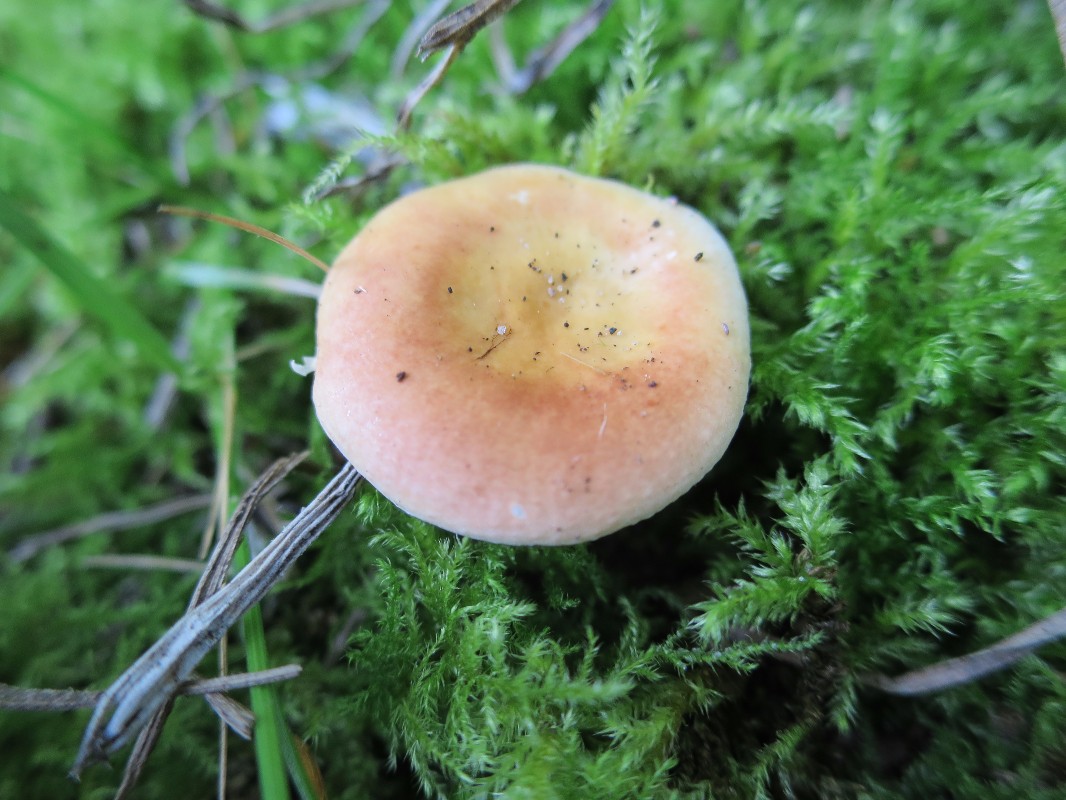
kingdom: Fungi
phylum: Basidiomycota
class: Agaricomycetes
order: Russulales
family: Russulaceae
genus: Russula
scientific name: Russula risigallina
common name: abrikos-skørhat
